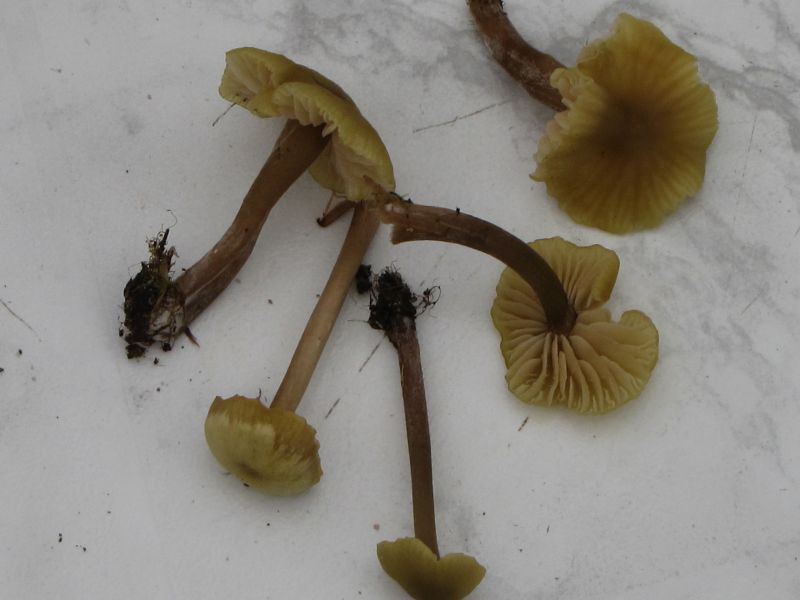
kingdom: Fungi
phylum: Basidiomycota
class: Agaricomycetes
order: Agaricales
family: Entolomataceae
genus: Entoloma
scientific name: Entoloma pleopodium
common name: duftende rødblad
